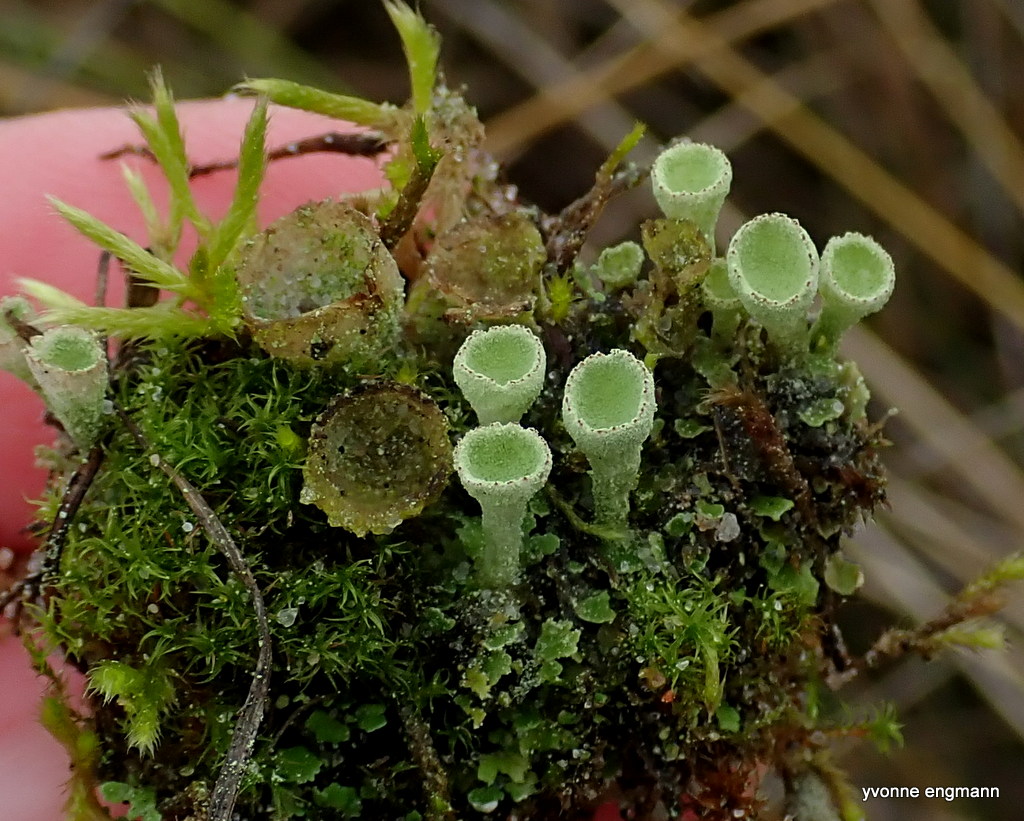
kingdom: Fungi
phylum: Ascomycota
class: Lecanoromycetes
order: Lecanorales
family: Cladoniaceae
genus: Cladonia
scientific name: Cladonia humilis
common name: lav bægerlav
